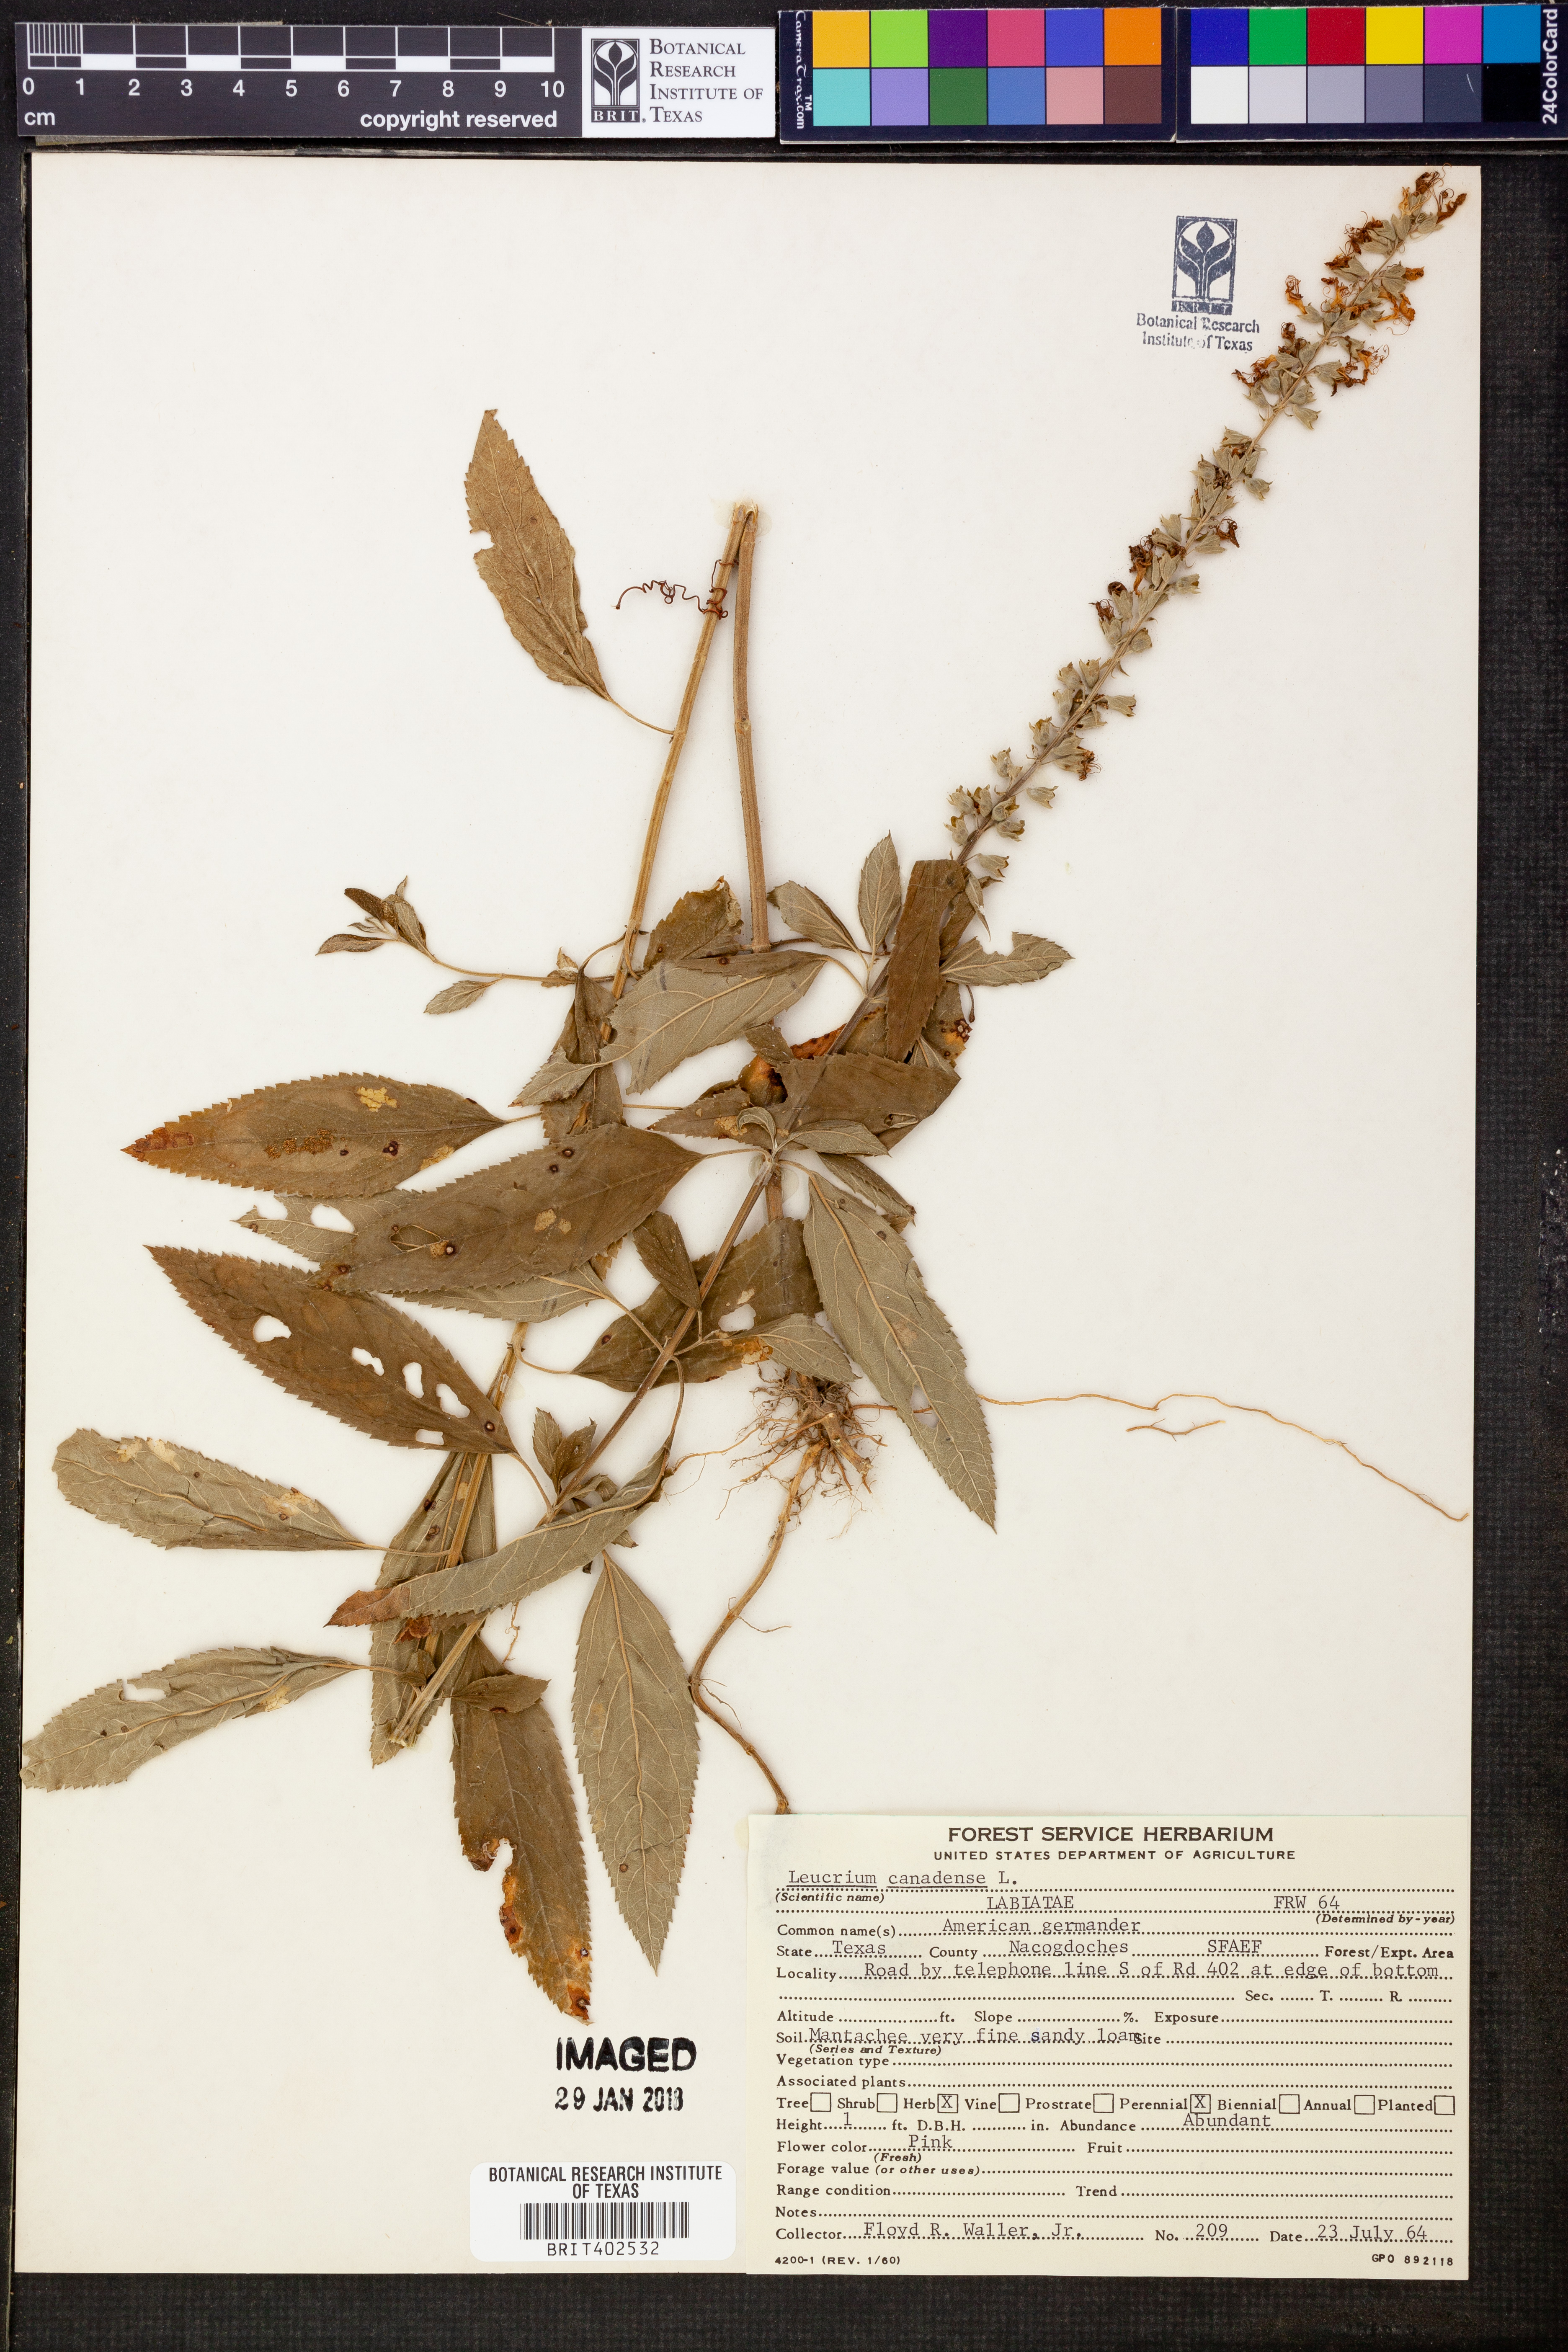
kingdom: Plantae
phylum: Tracheophyta
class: Magnoliopsida
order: Lamiales
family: Lamiaceae
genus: Teucrium
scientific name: Teucrium canadense
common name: American germander
